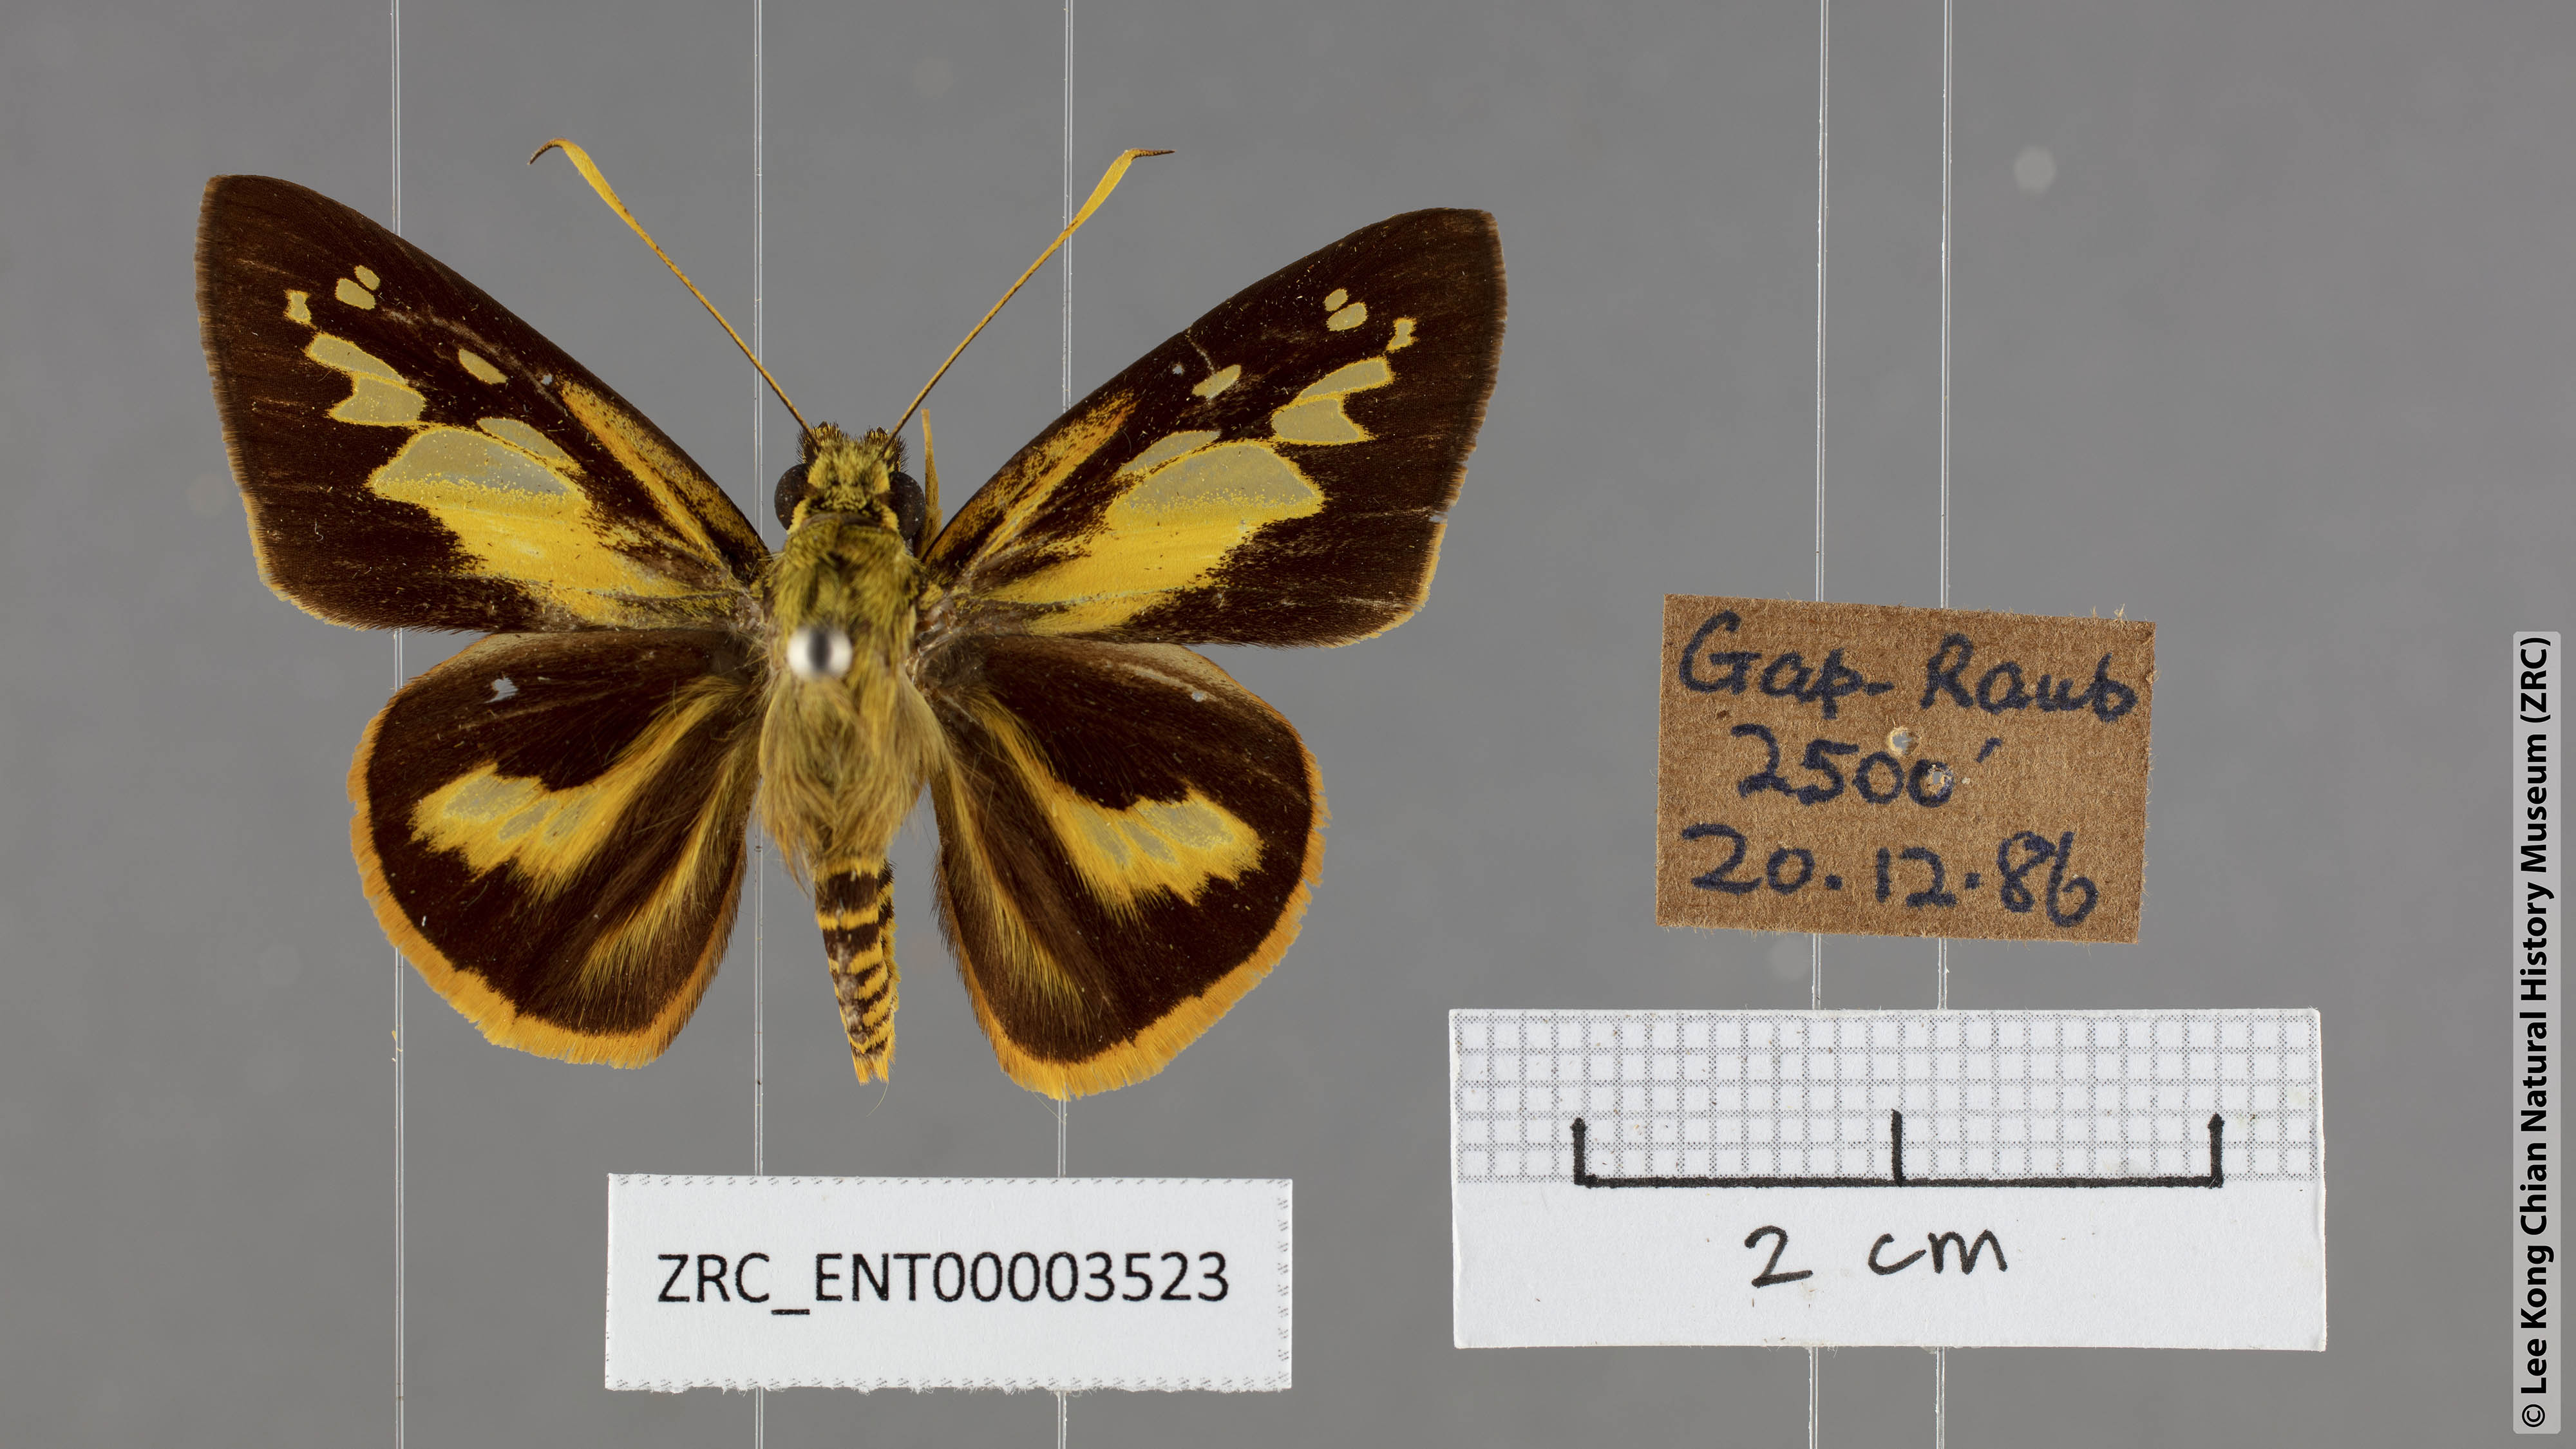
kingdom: Animalia
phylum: Arthropoda
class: Insecta
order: Lepidoptera
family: Hesperiidae
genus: Pyroneura
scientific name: Pyroneura
